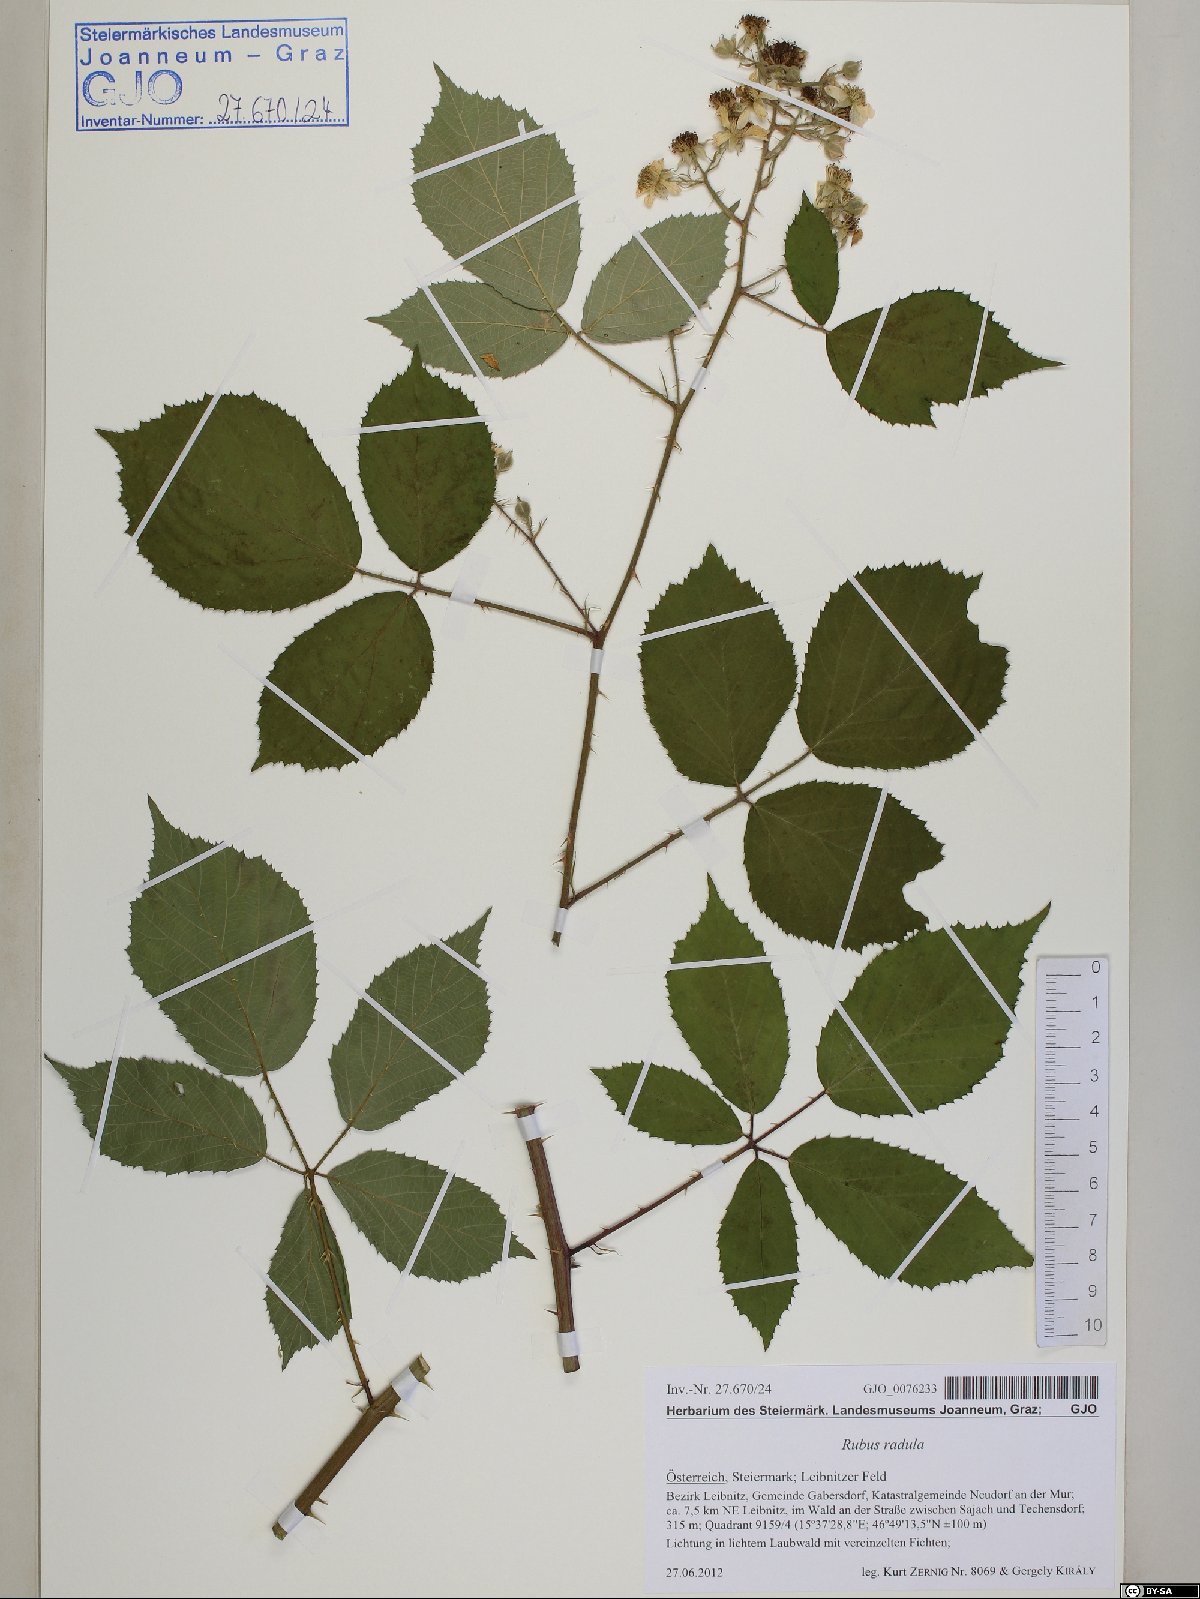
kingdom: Plantae
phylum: Tracheophyta
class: Magnoliopsida
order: Rosales
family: Rosaceae
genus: Rubus
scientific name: Rubus radula
